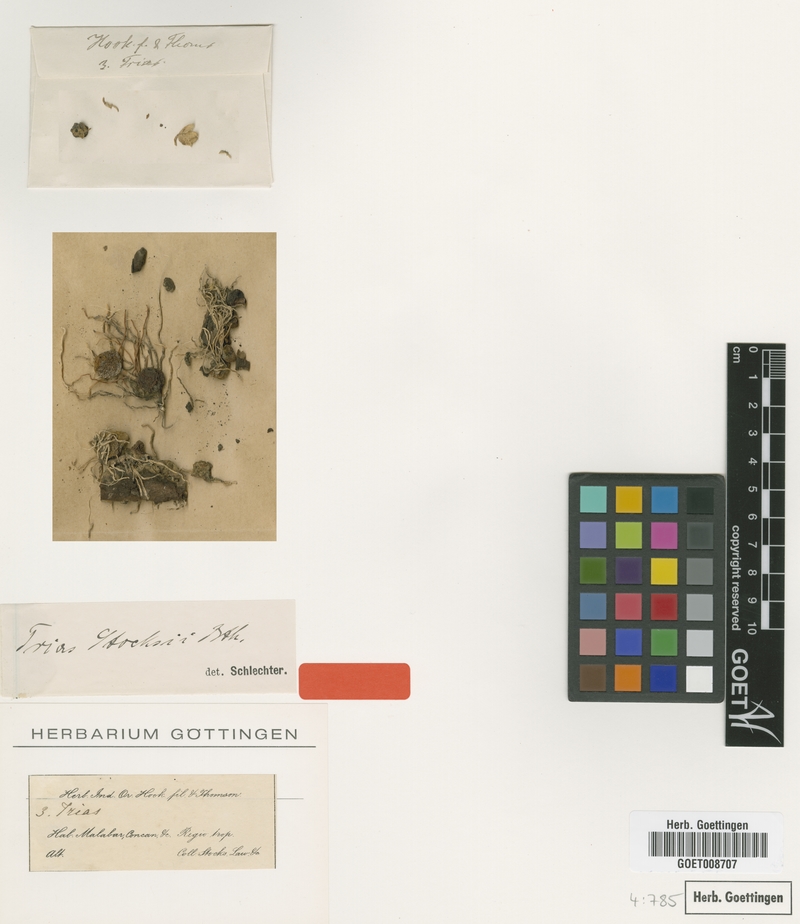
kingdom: Plantae
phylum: Tracheophyta
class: Liliopsida
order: Asparagales
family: Orchidaceae
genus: Bulbophyllum
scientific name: Bulbophyllum stocksii
